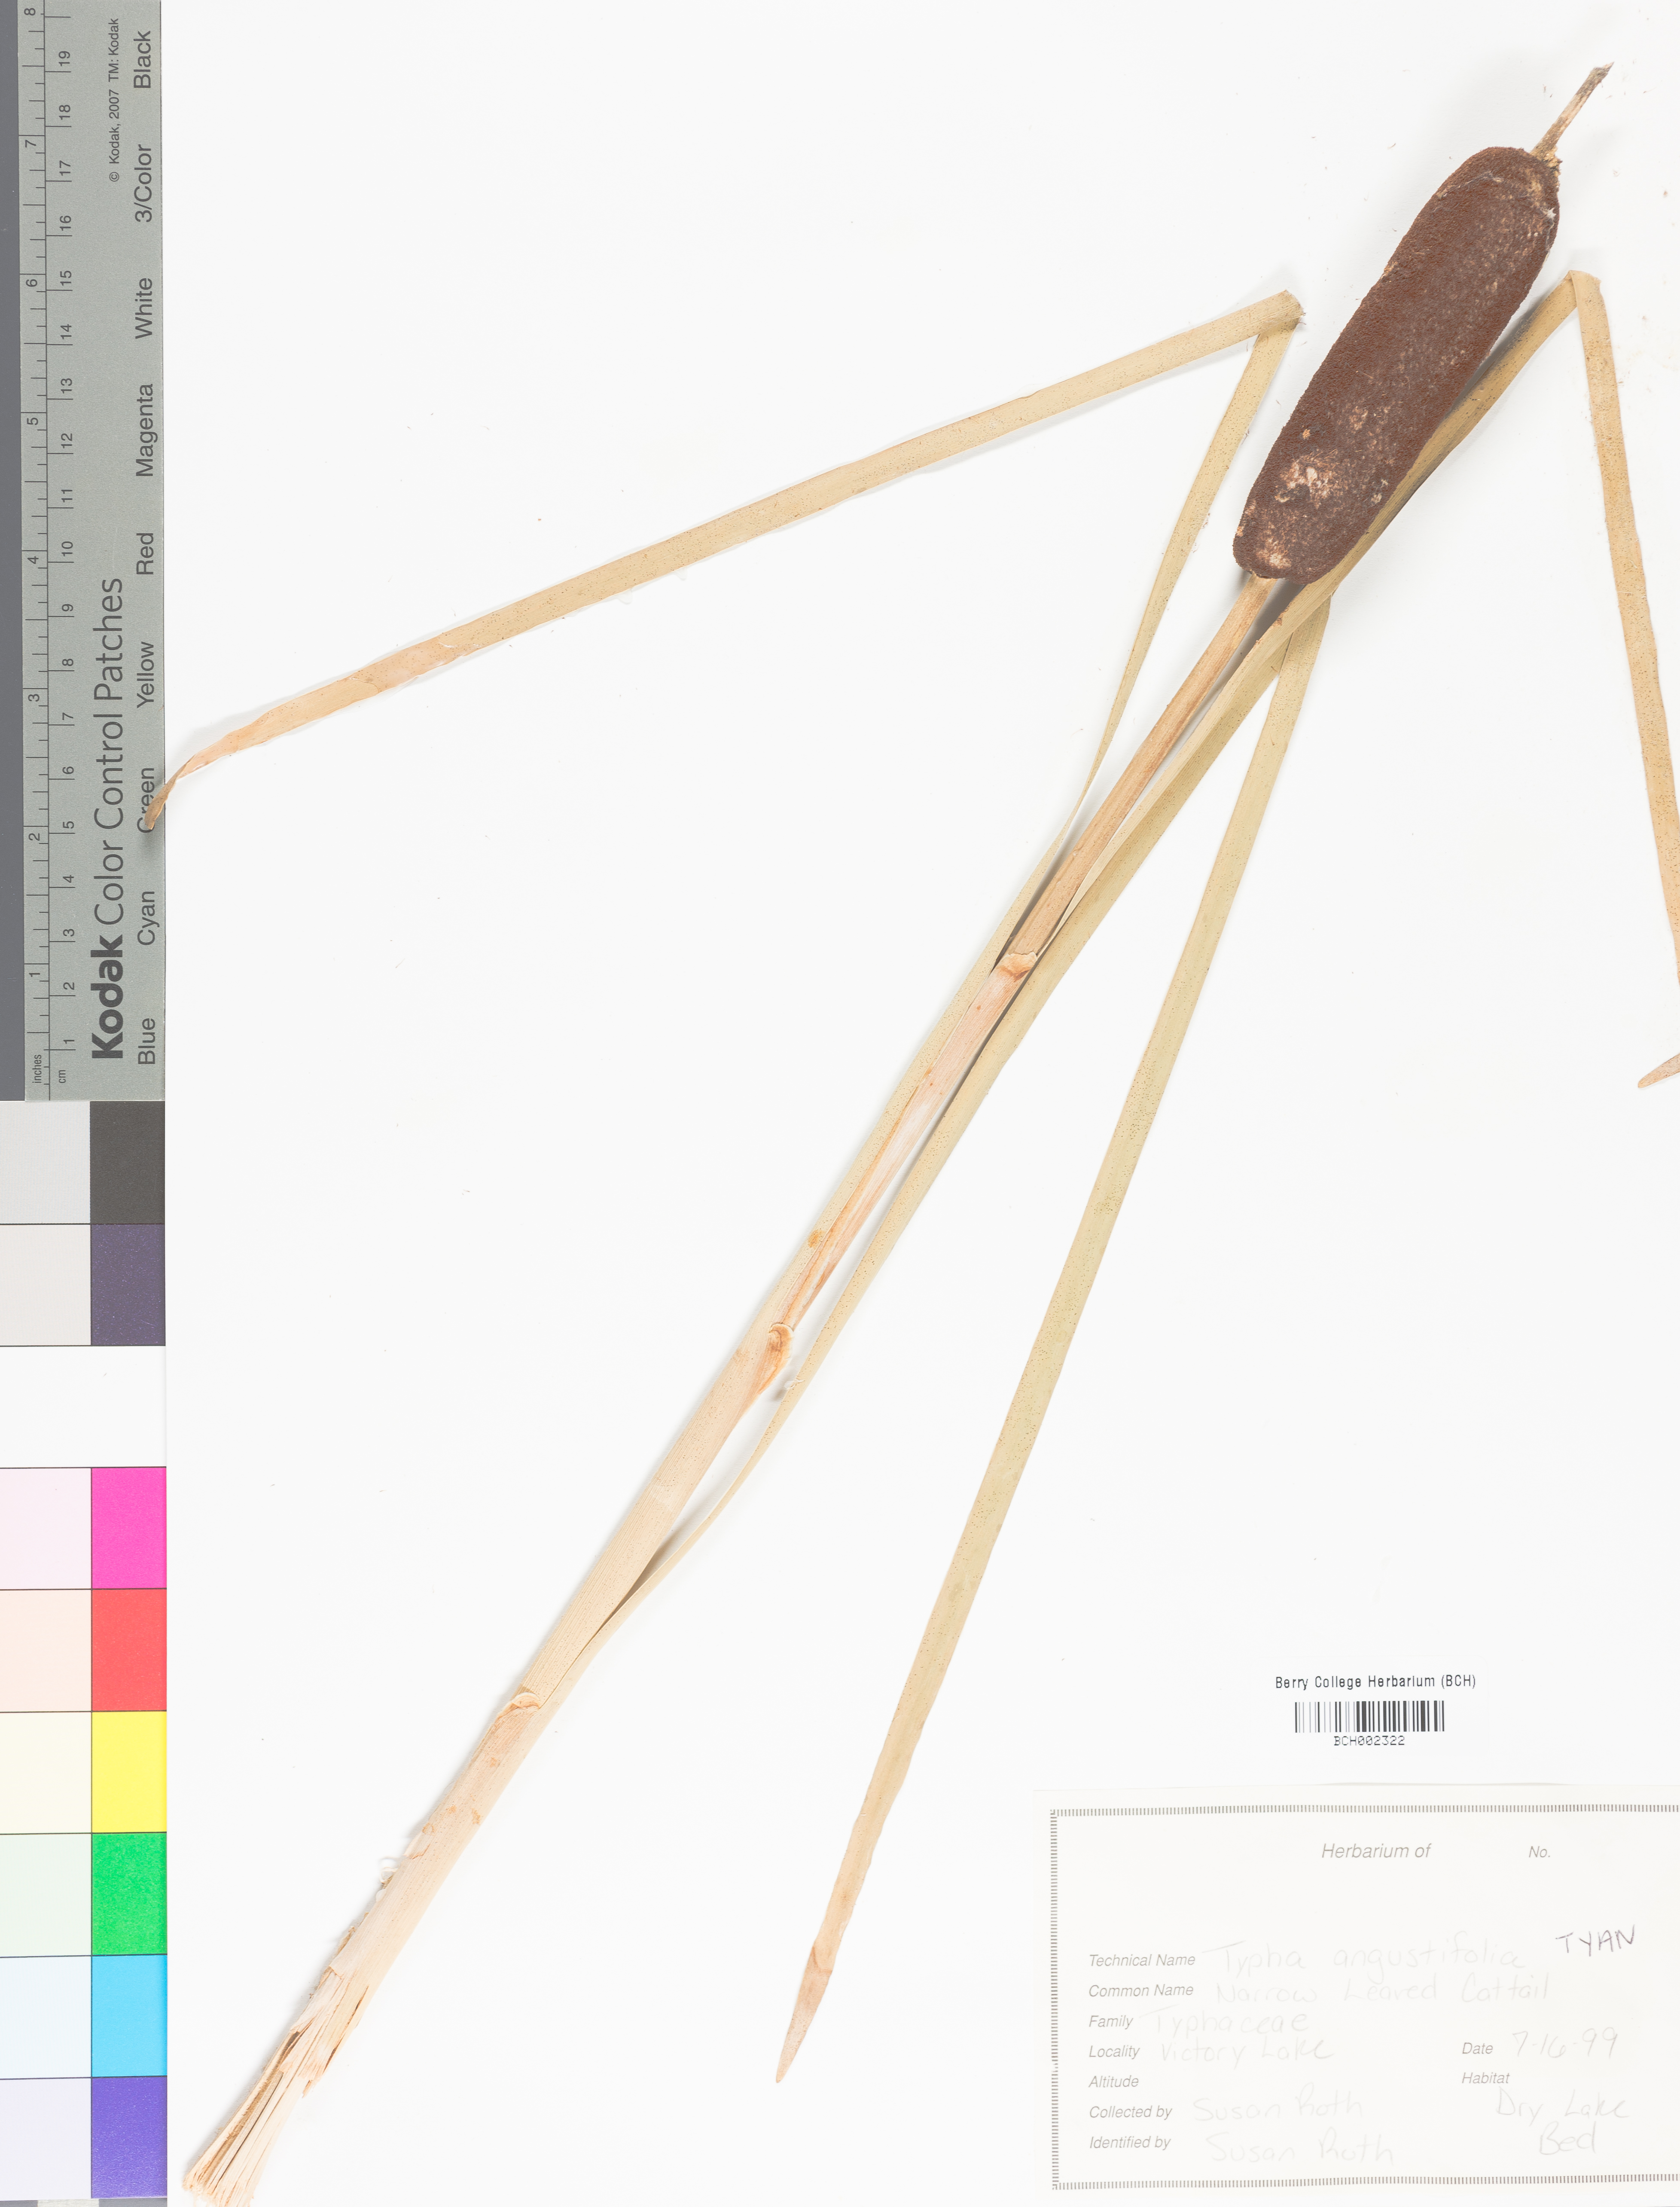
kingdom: Plantae
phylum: Tracheophyta
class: Liliopsida
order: Poales
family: Typhaceae
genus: Typha
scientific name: Typha angustifolia
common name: Lesser bulrush
